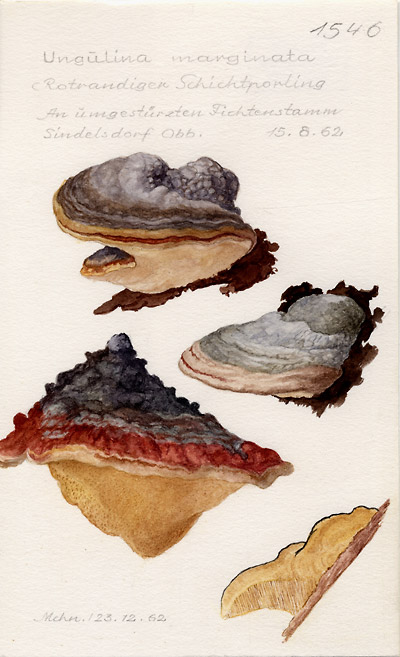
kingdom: Fungi
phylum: Basidiomycota
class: Agaricomycetes
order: Polyporales
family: Fomitopsidaceae
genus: Fomitopsis
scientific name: Fomitopsis pinicola
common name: Red-belted bracket
